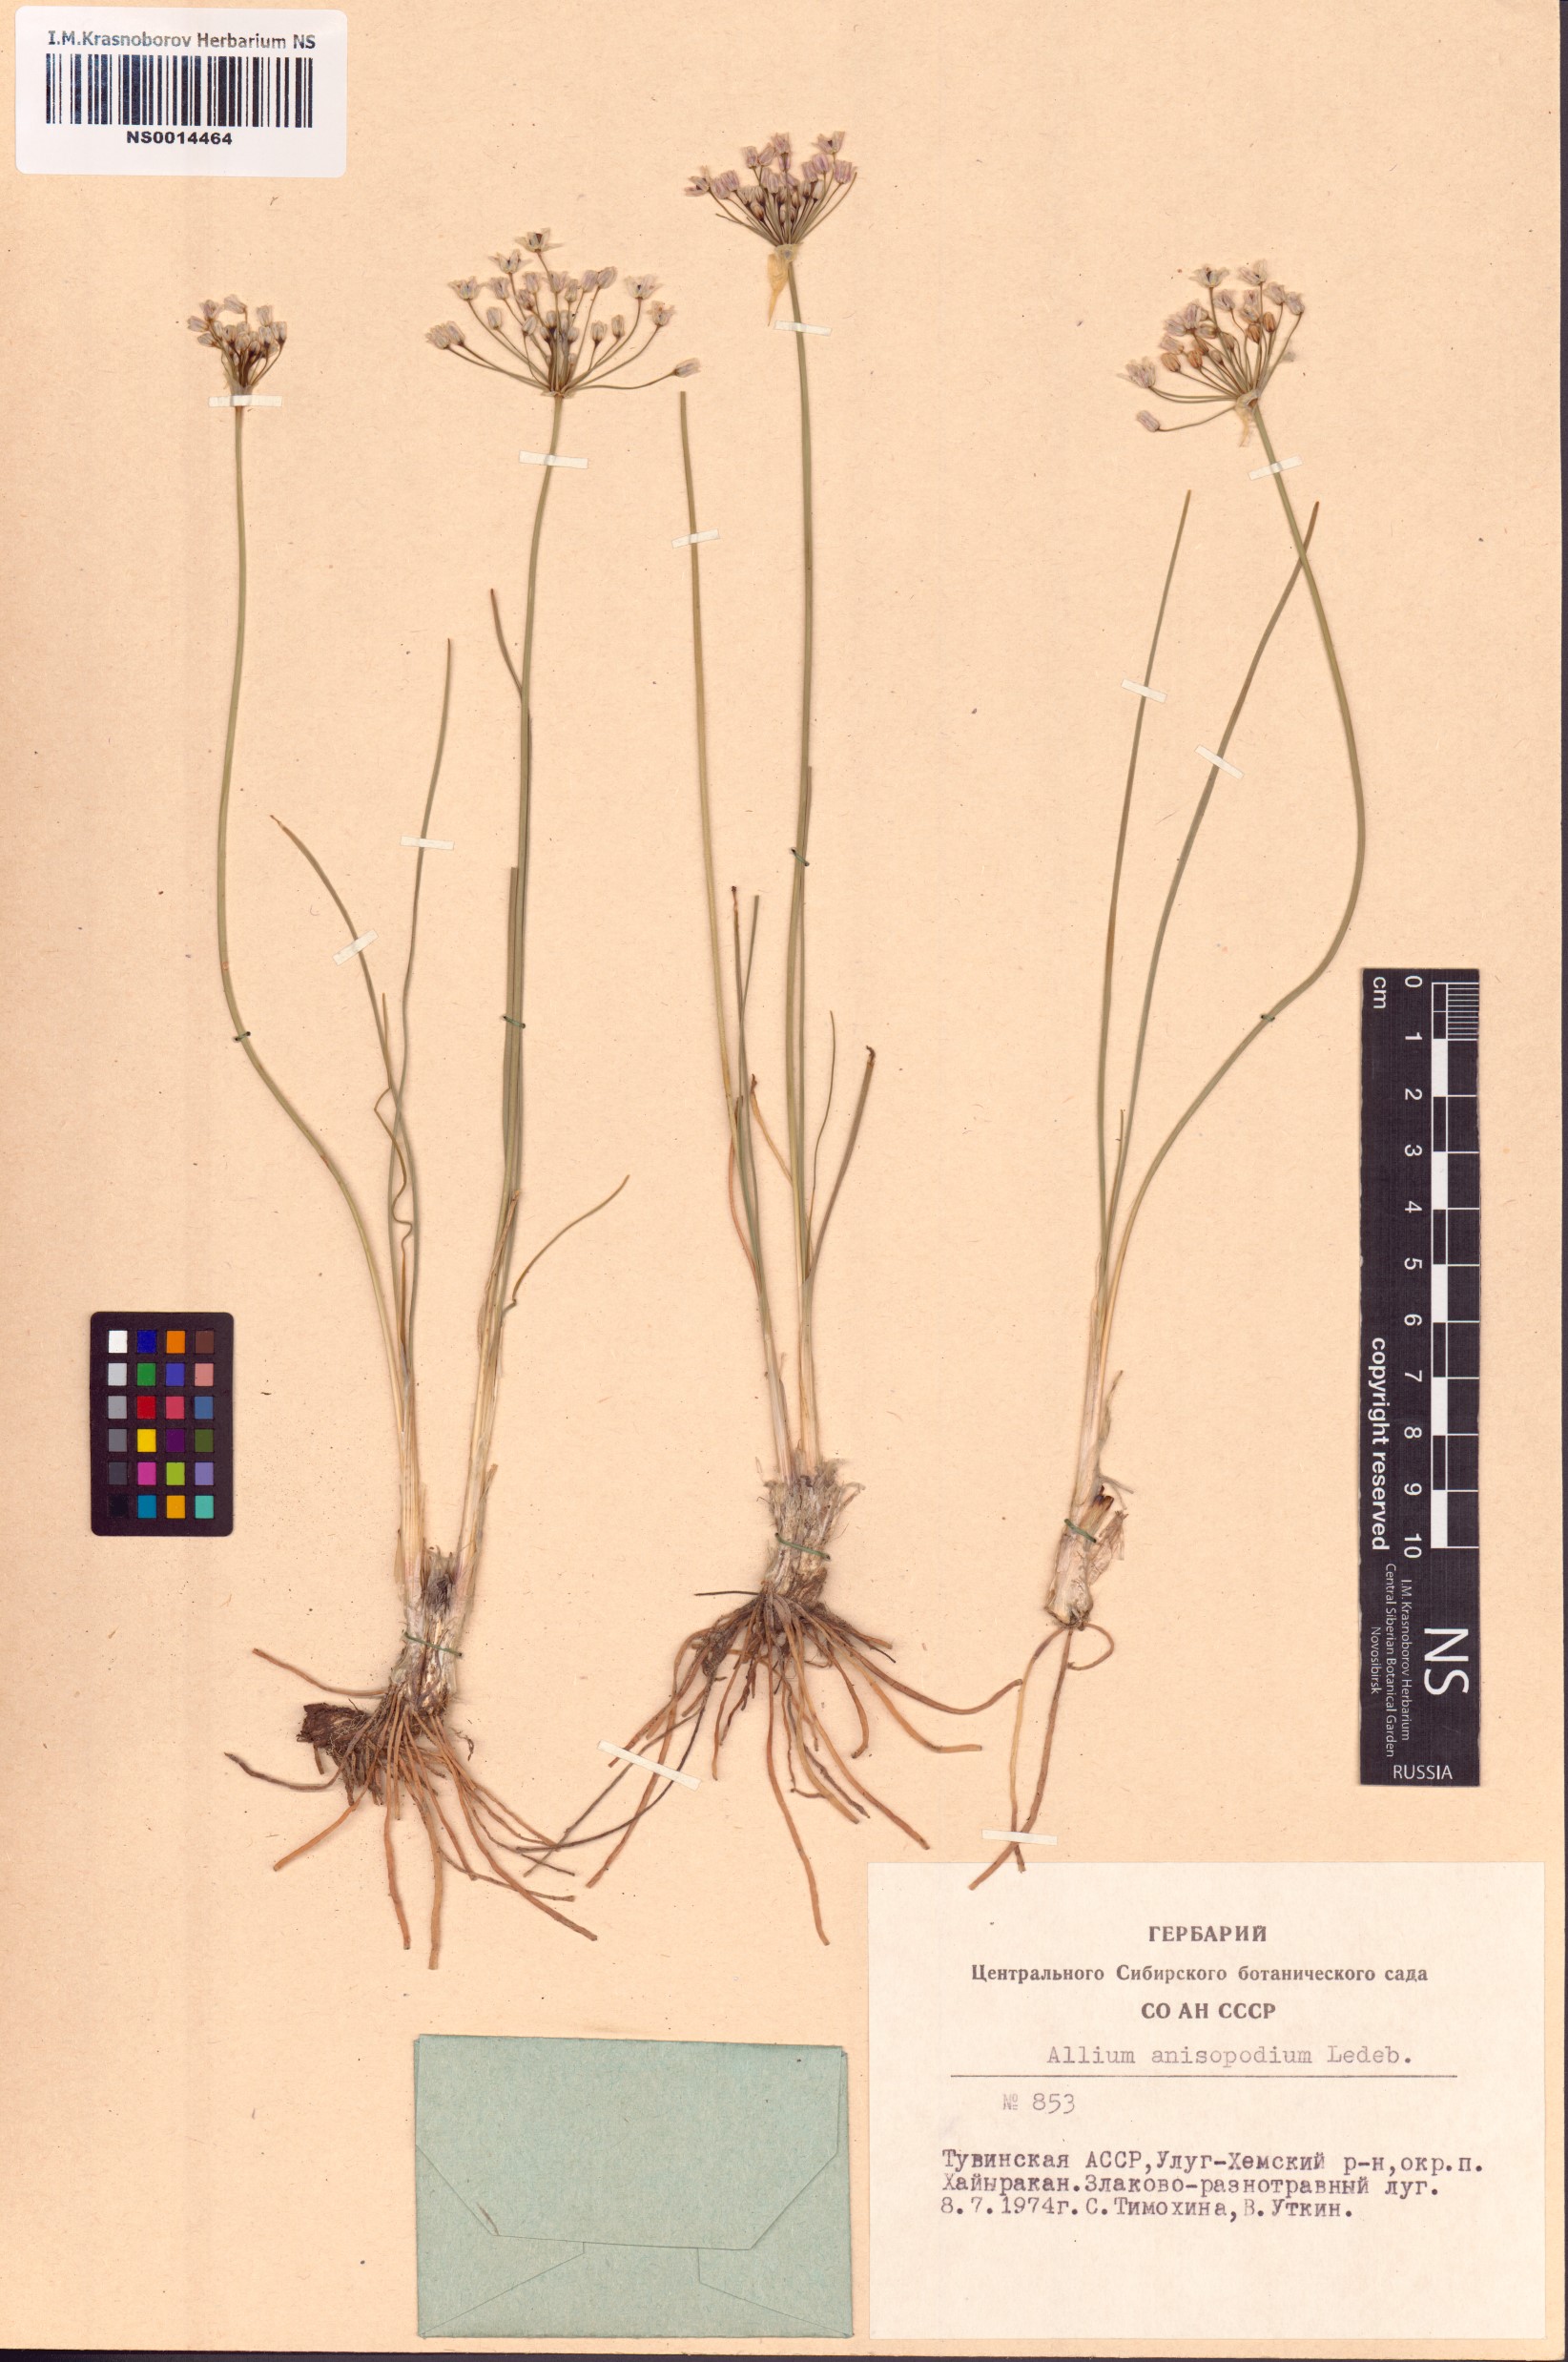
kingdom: Plantae
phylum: Tracheophyta
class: Liliopsida
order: Asparagales
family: Amaryllidaceae
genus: Allium
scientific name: Allium anisopodium
